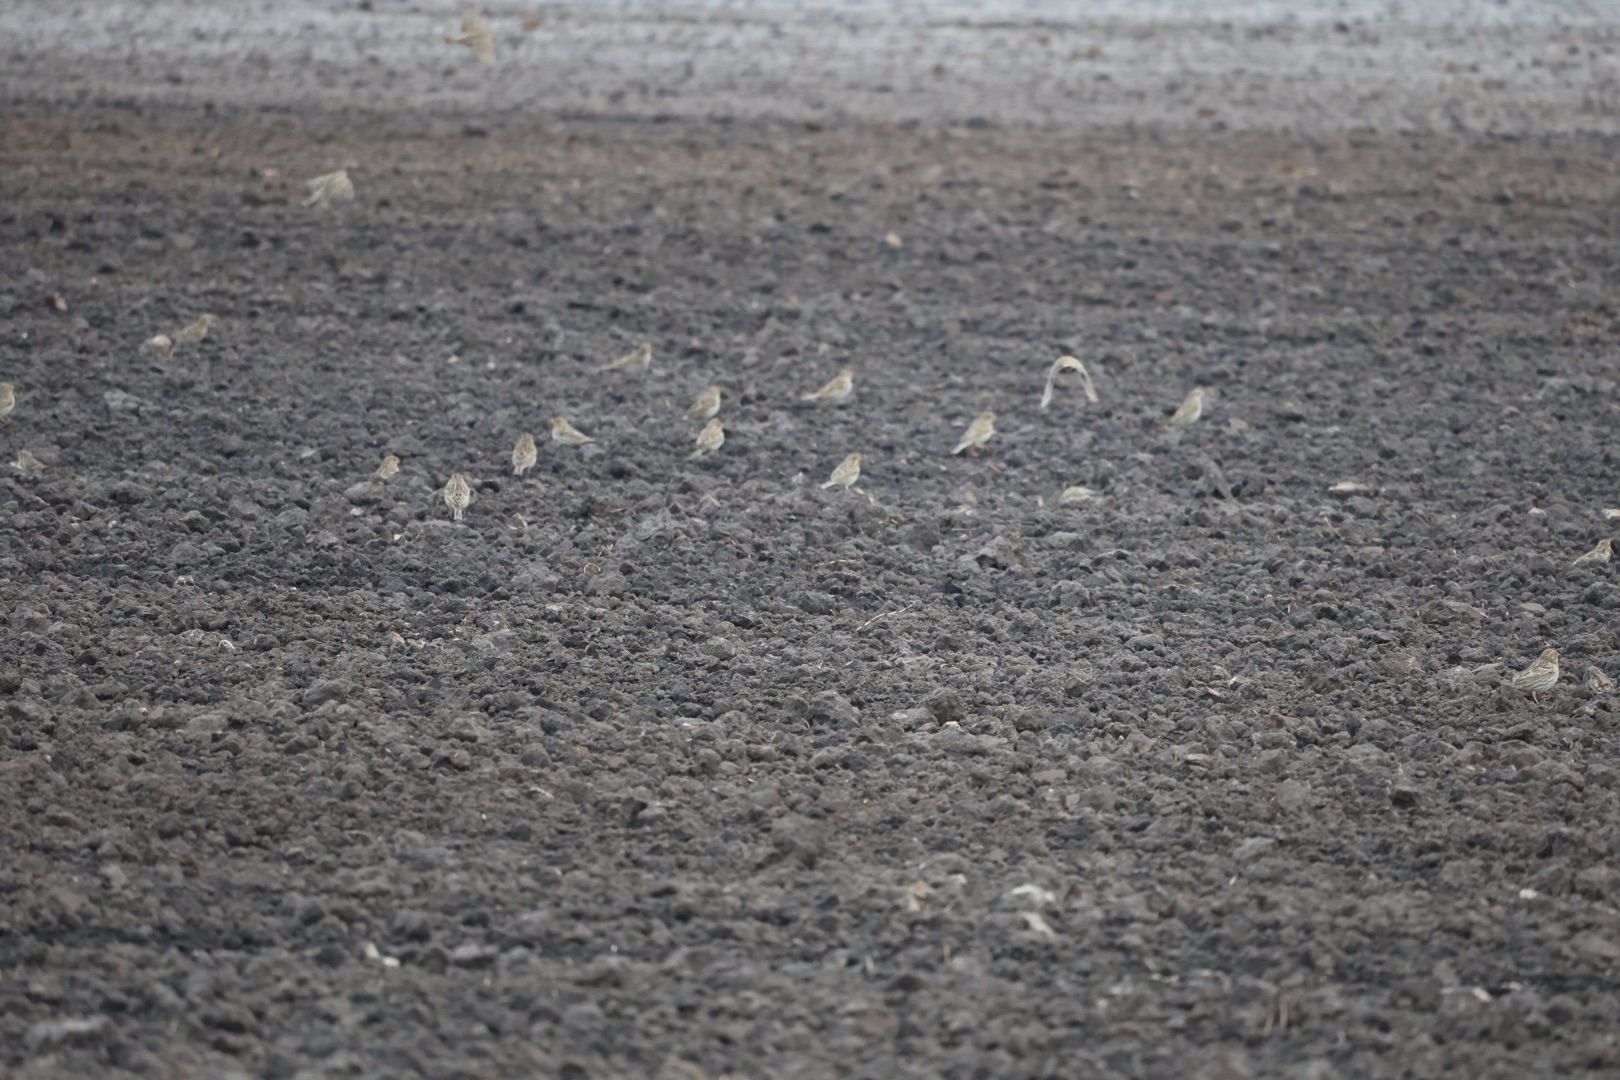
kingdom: Animalia
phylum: Chordata
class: Aves
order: Passeriformes
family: Emberizidae
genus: Emberiza
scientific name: Emberiza calandra
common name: Bomlærke
